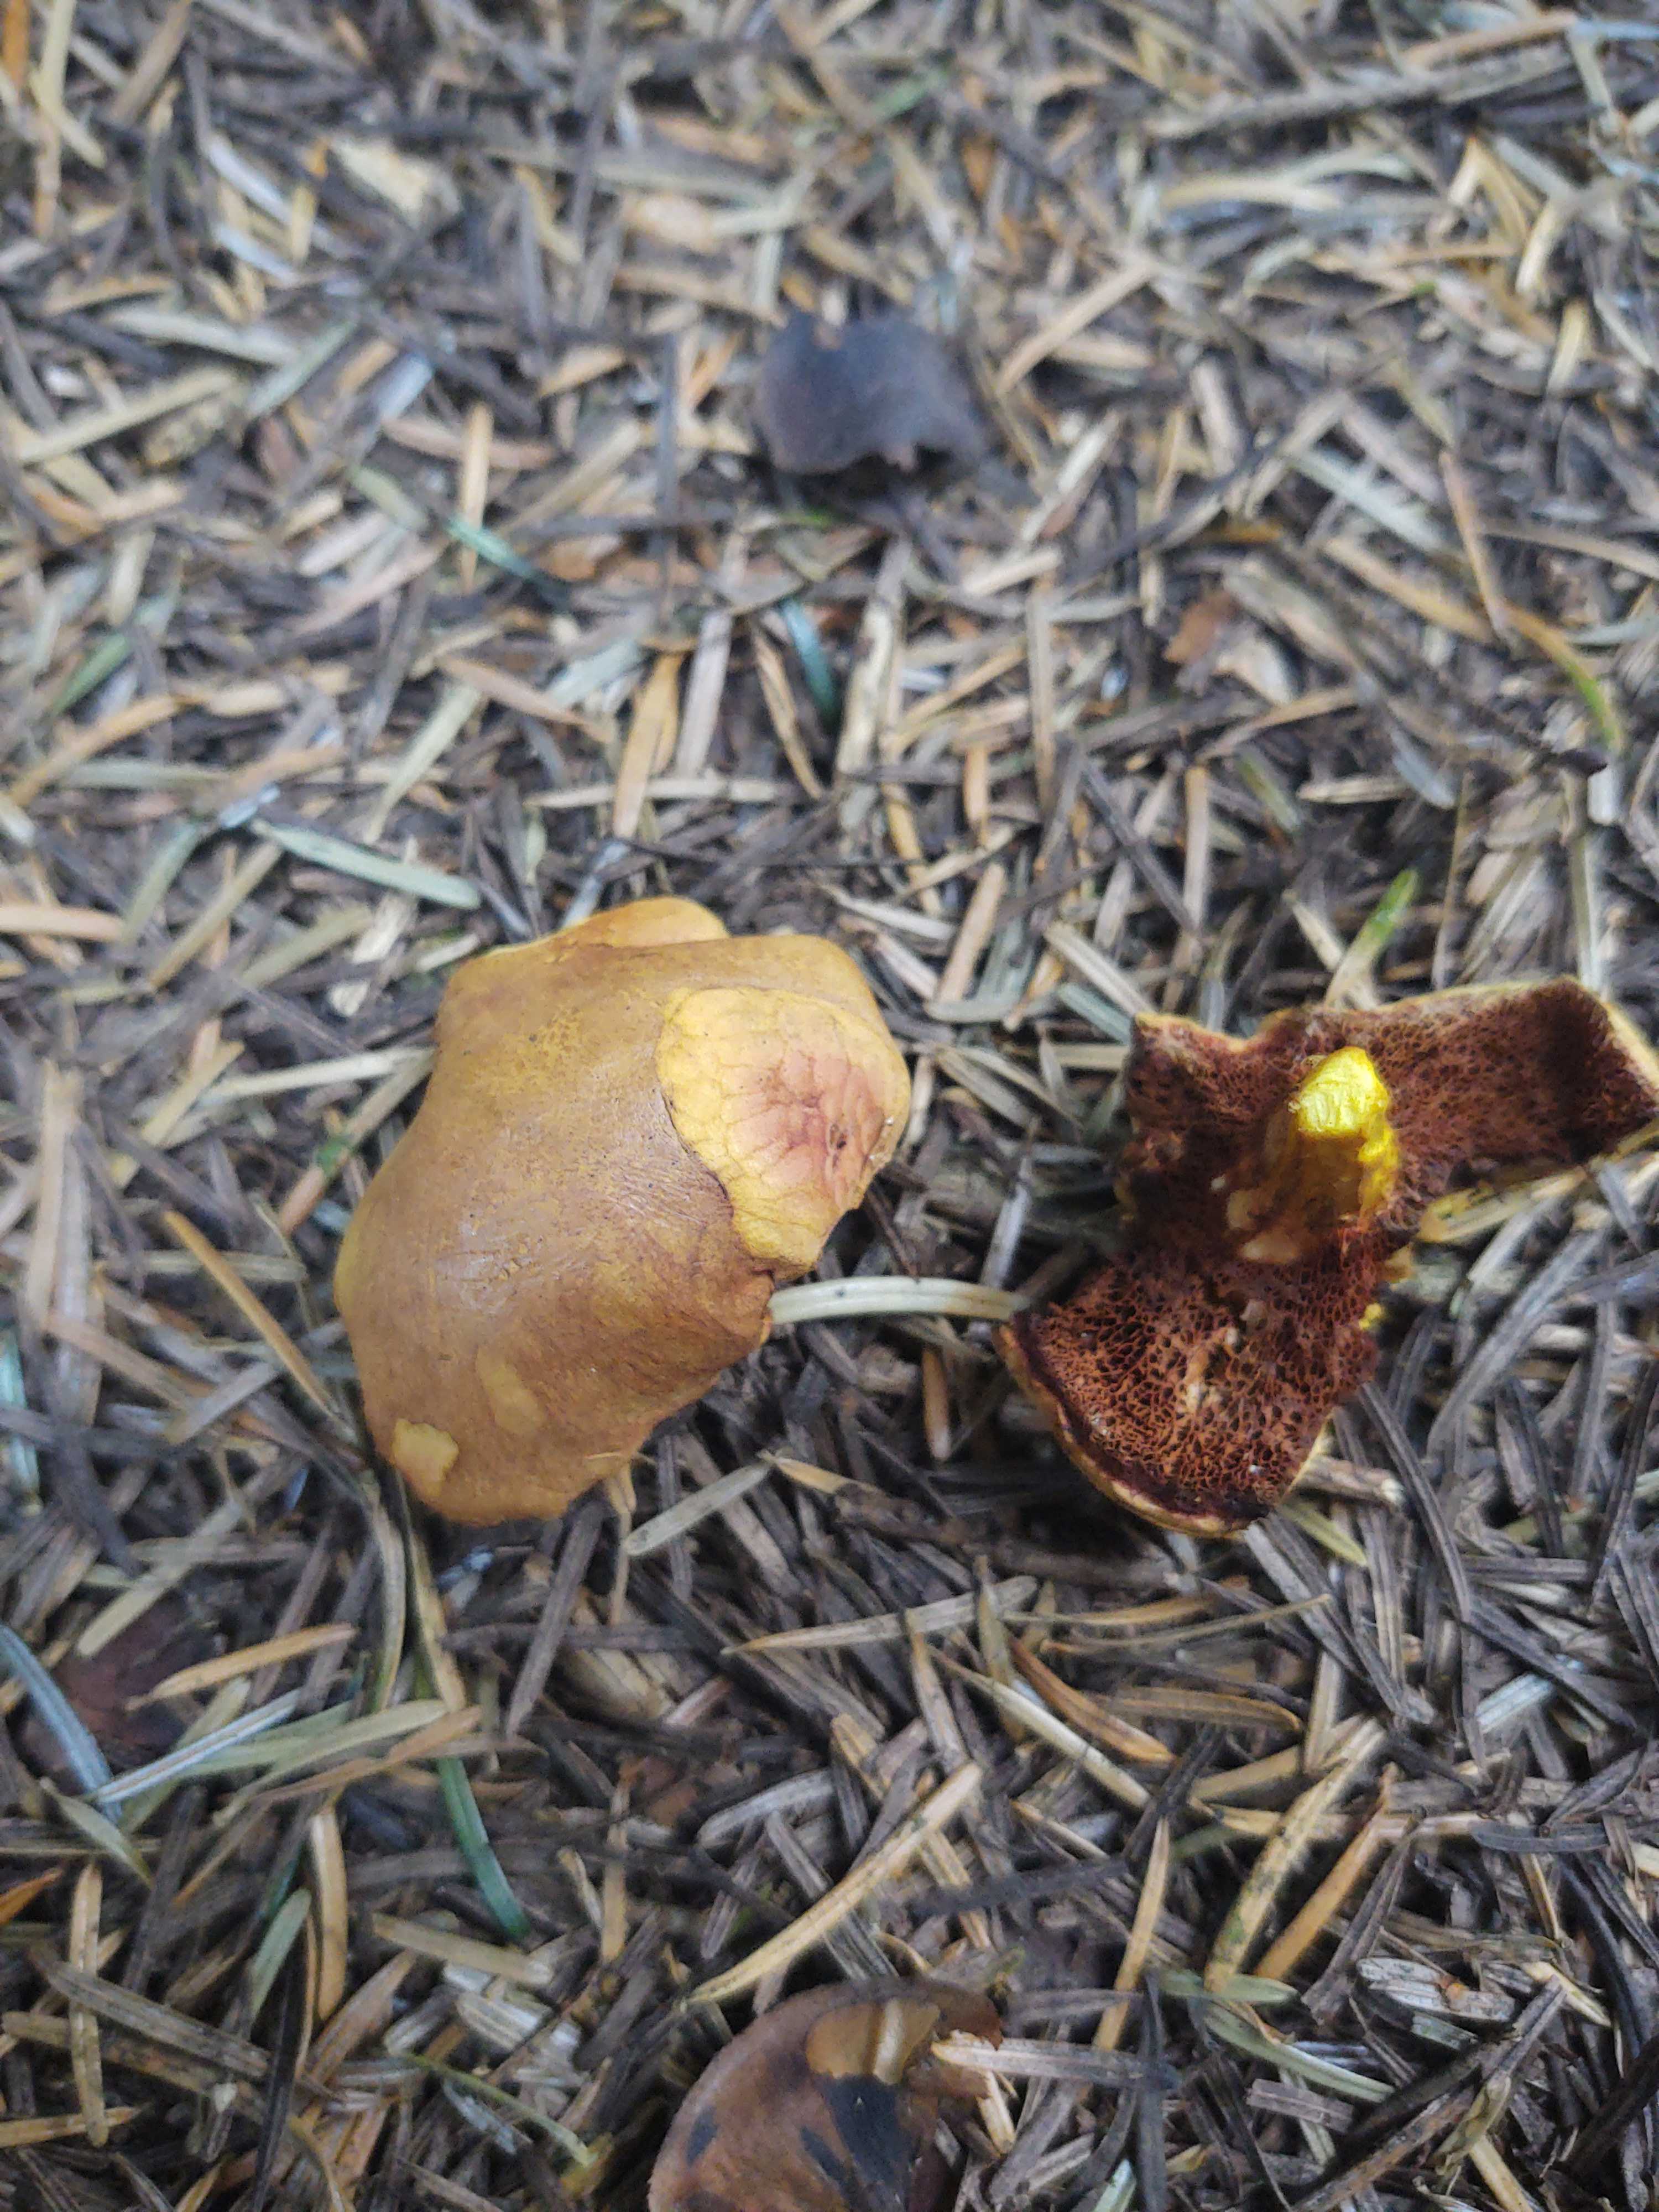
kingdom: Fungi
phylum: Basidiomycota
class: Agaricomycetes
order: Boletales
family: Boletaceae
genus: Chalciporus
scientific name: Chalciporus piperatus
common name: peberrørhat
